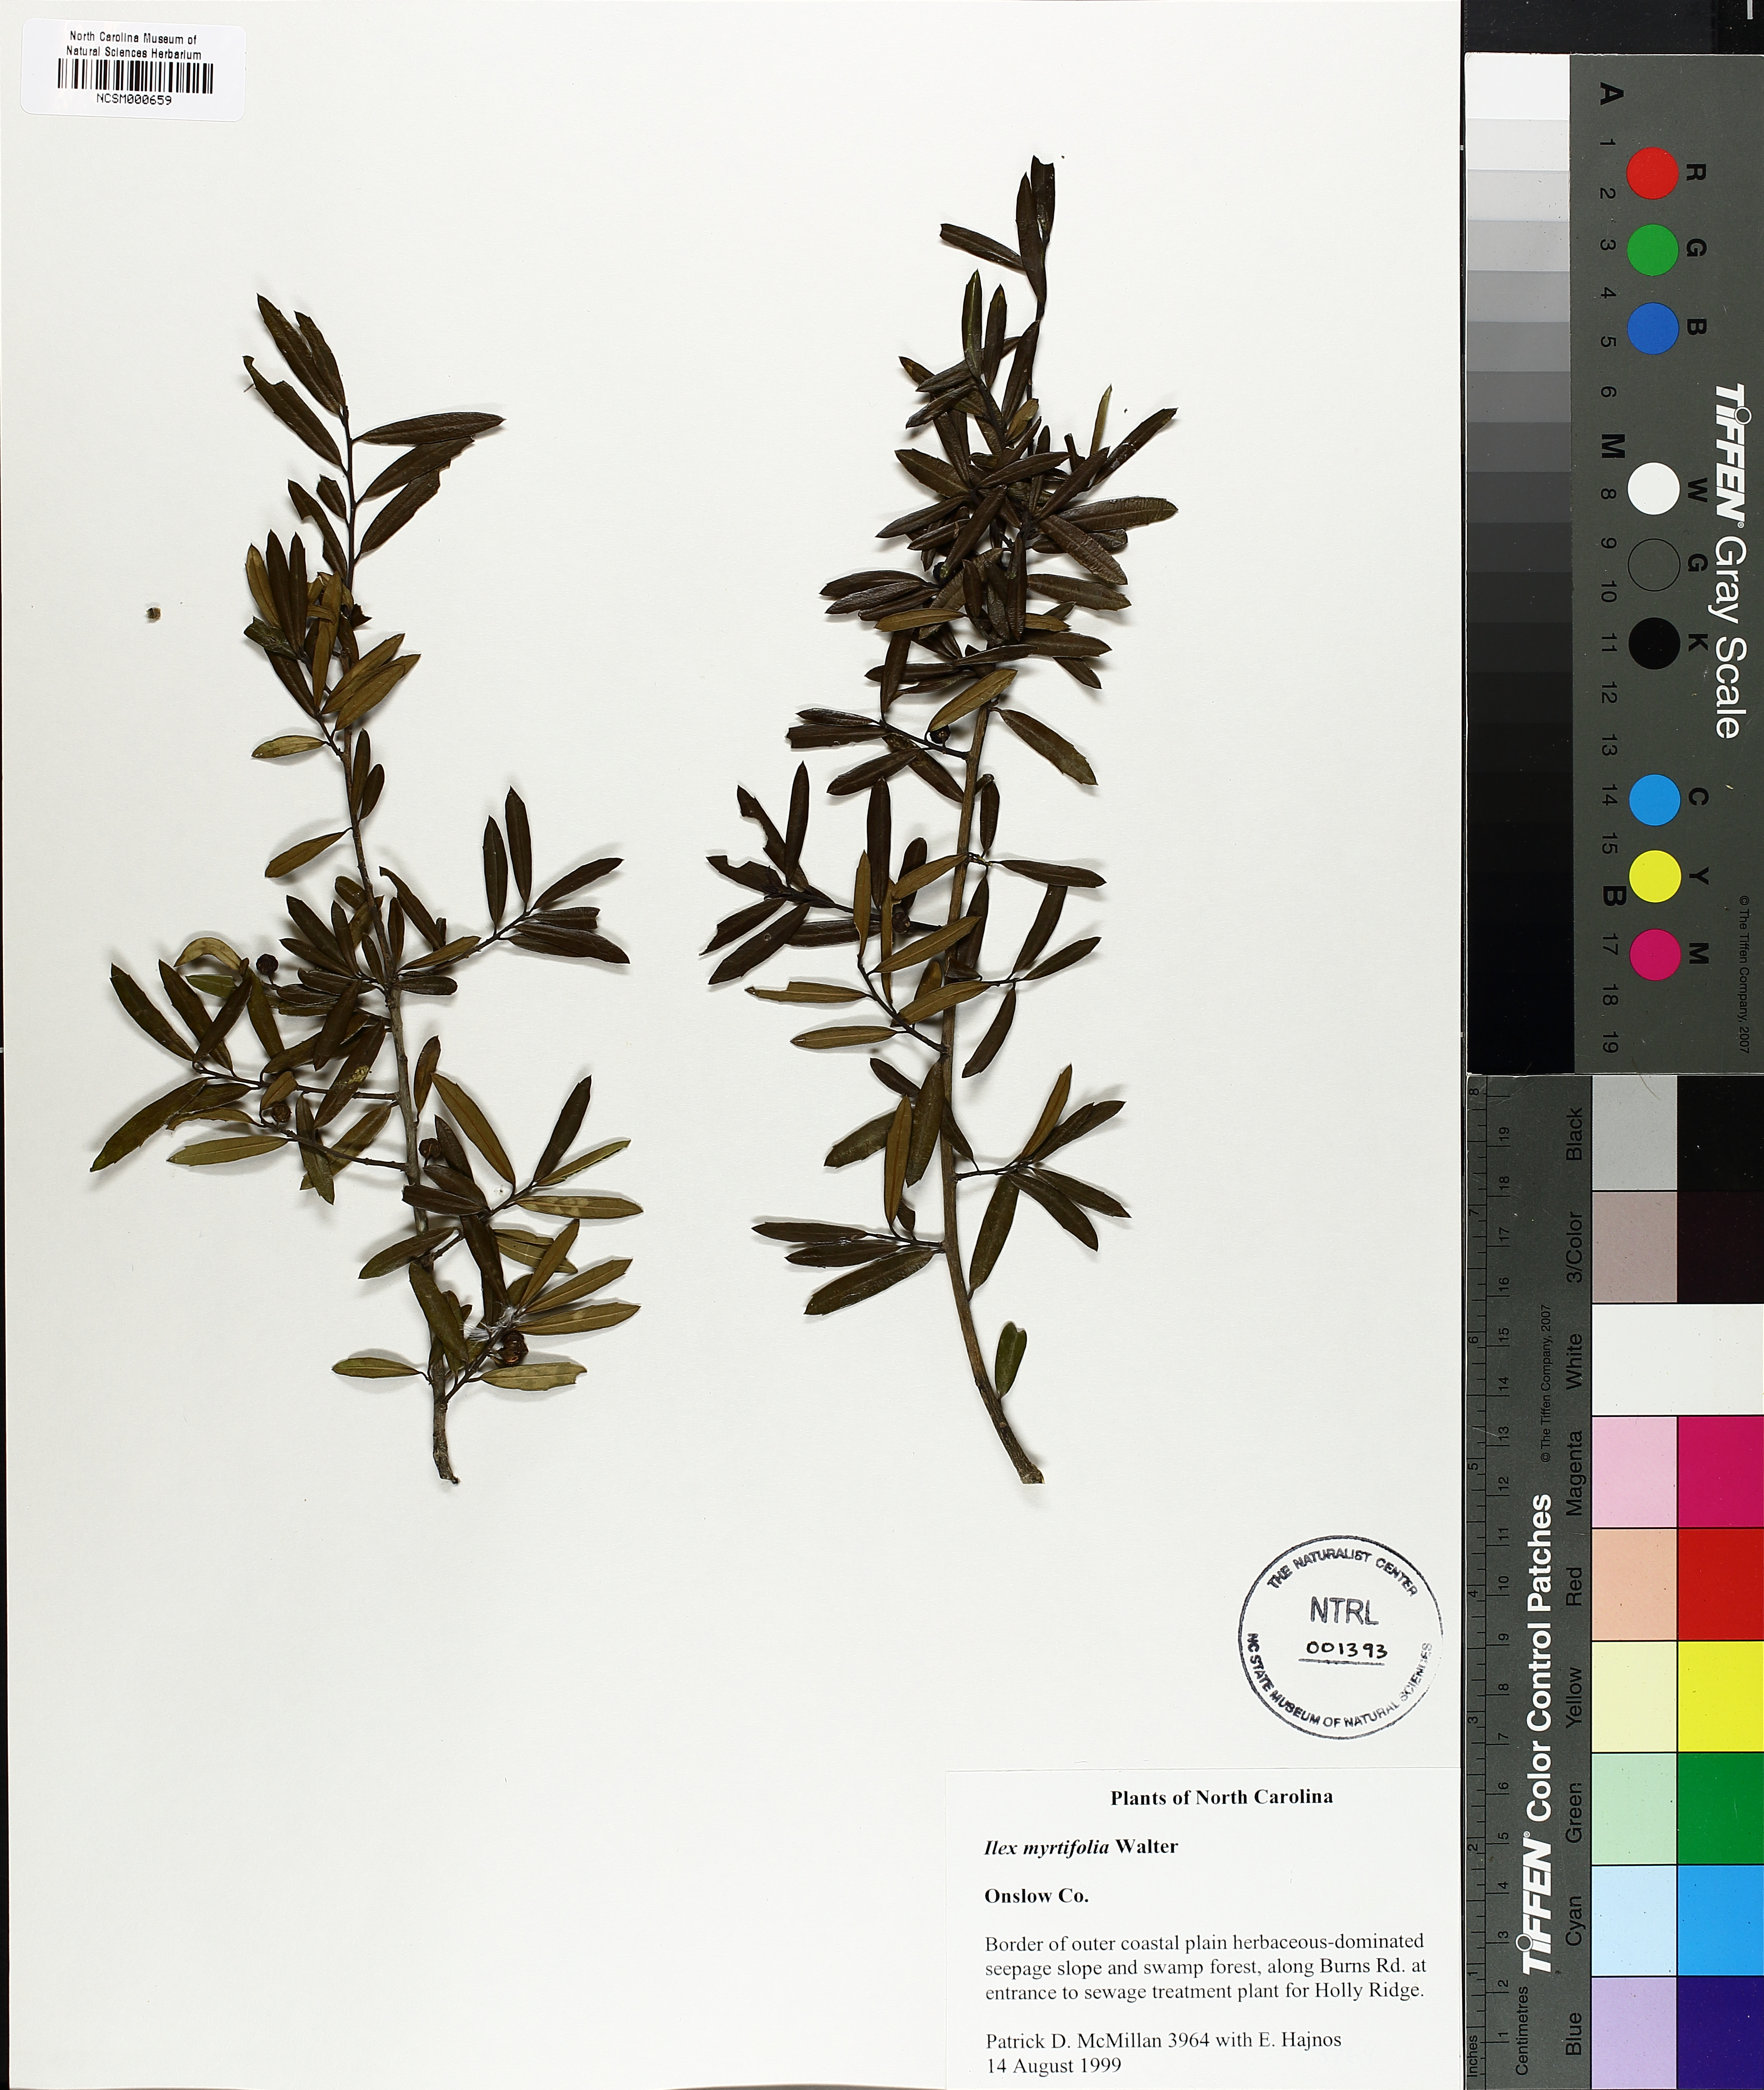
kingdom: Plantae
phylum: Tracheophyta
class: Magnoliopsida
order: Aquifoliales
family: Aquifoliaceae
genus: Ilex
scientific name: Ilex myrtifolia
